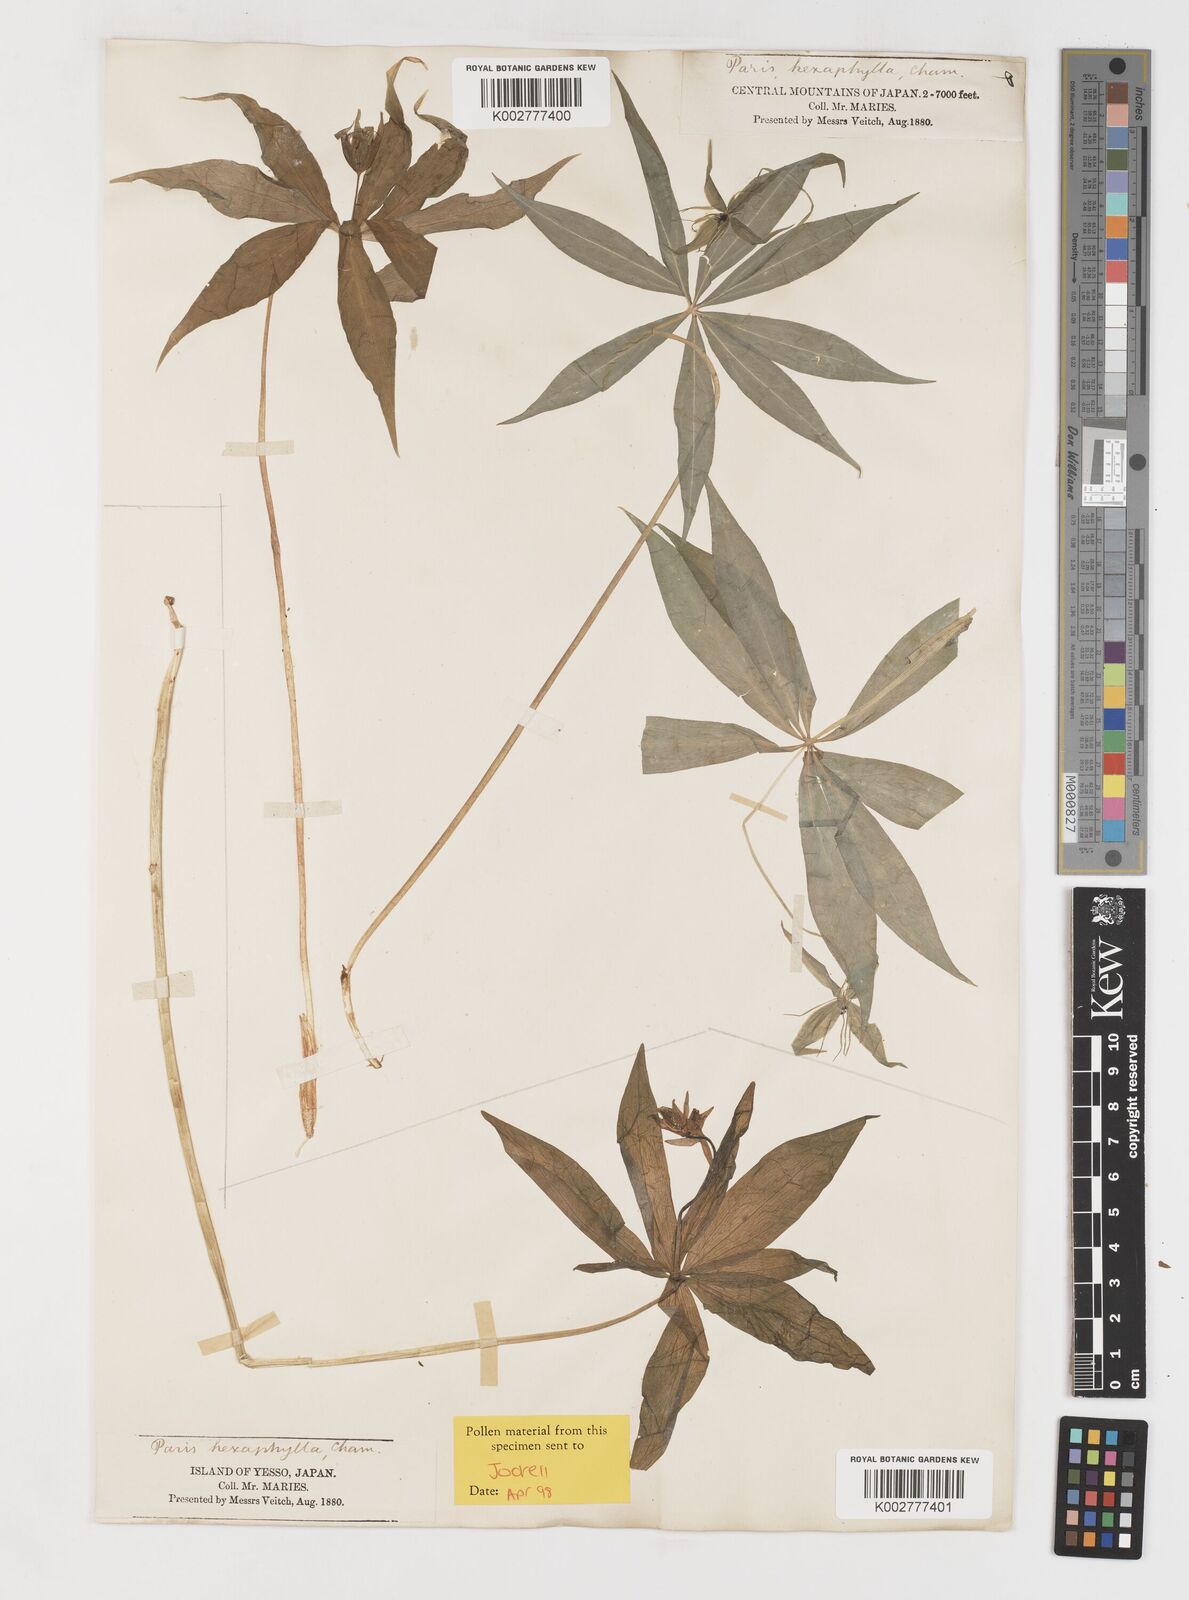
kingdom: Plantae
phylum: Tracheophyta
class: Liliopsida
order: Liliales
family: Melanthiaceae
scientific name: Melanthiaceae
